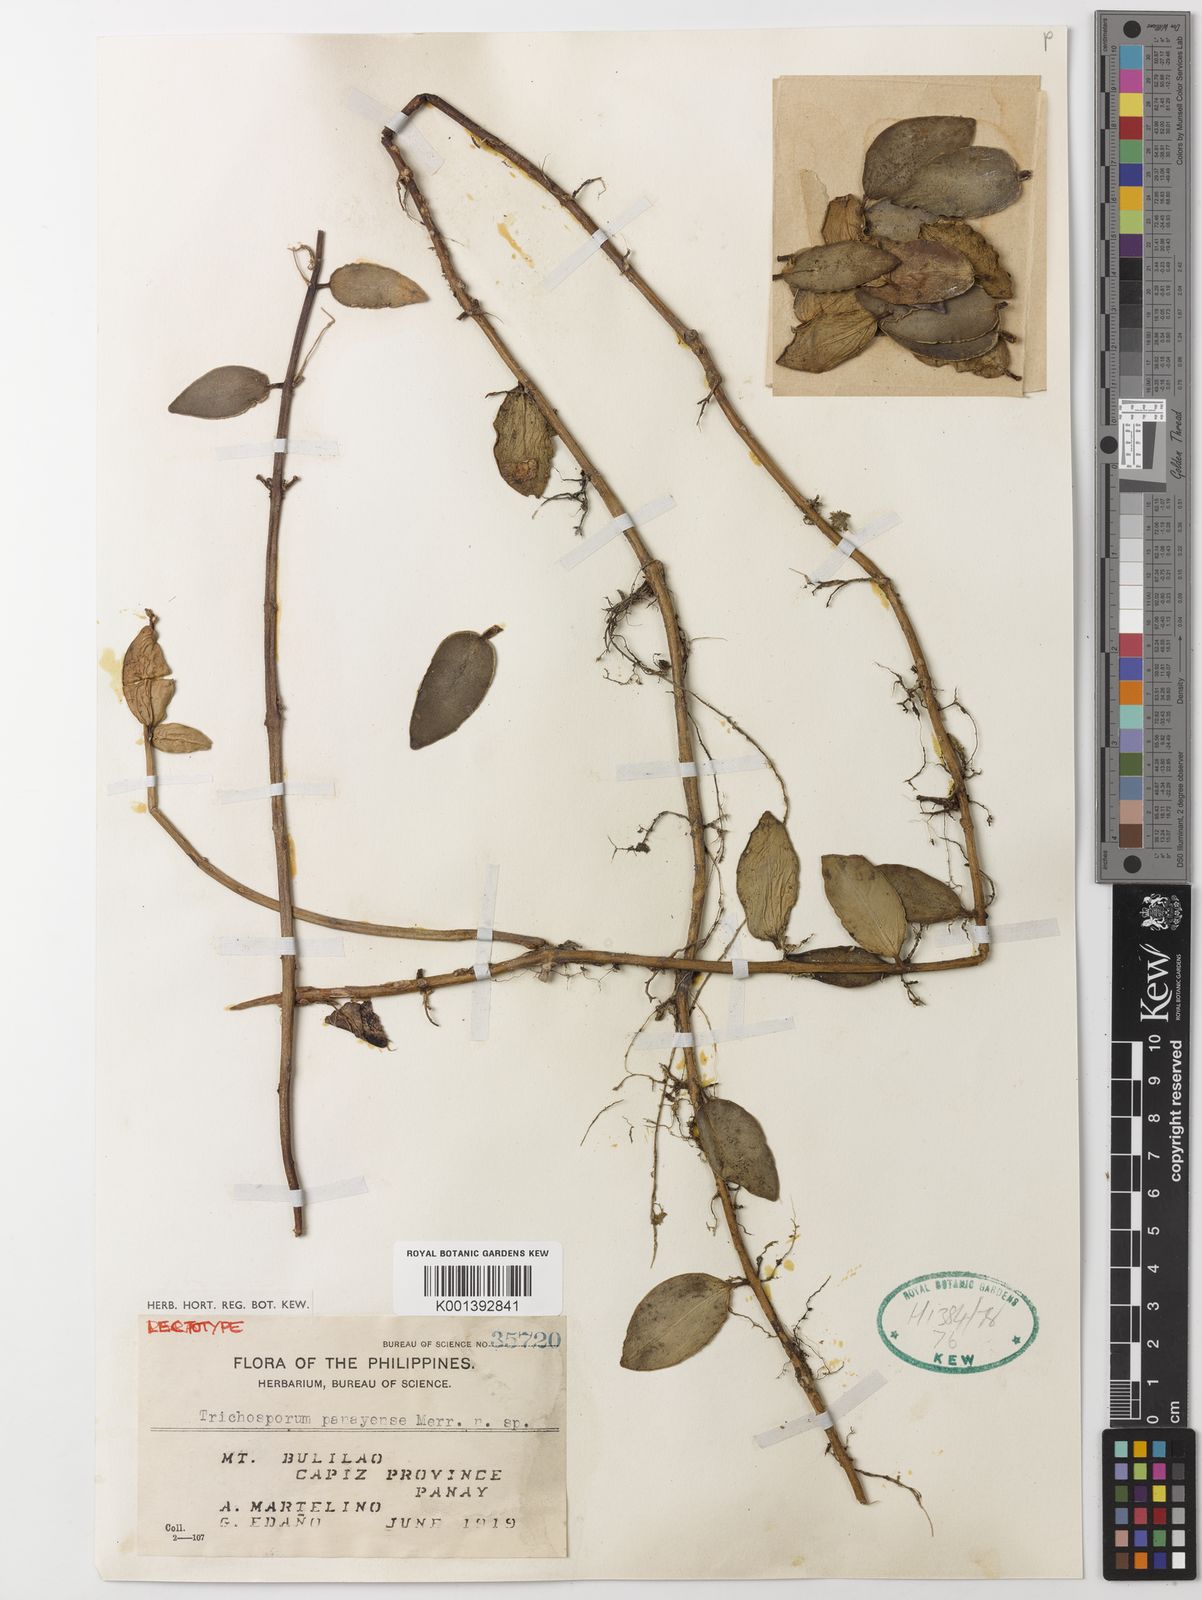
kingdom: Plantae
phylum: Tracheophyta
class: Magnoliopsida
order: Lamiales
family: Gesneriaceae
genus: Aeschynanthus
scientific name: Aeschynanthus
